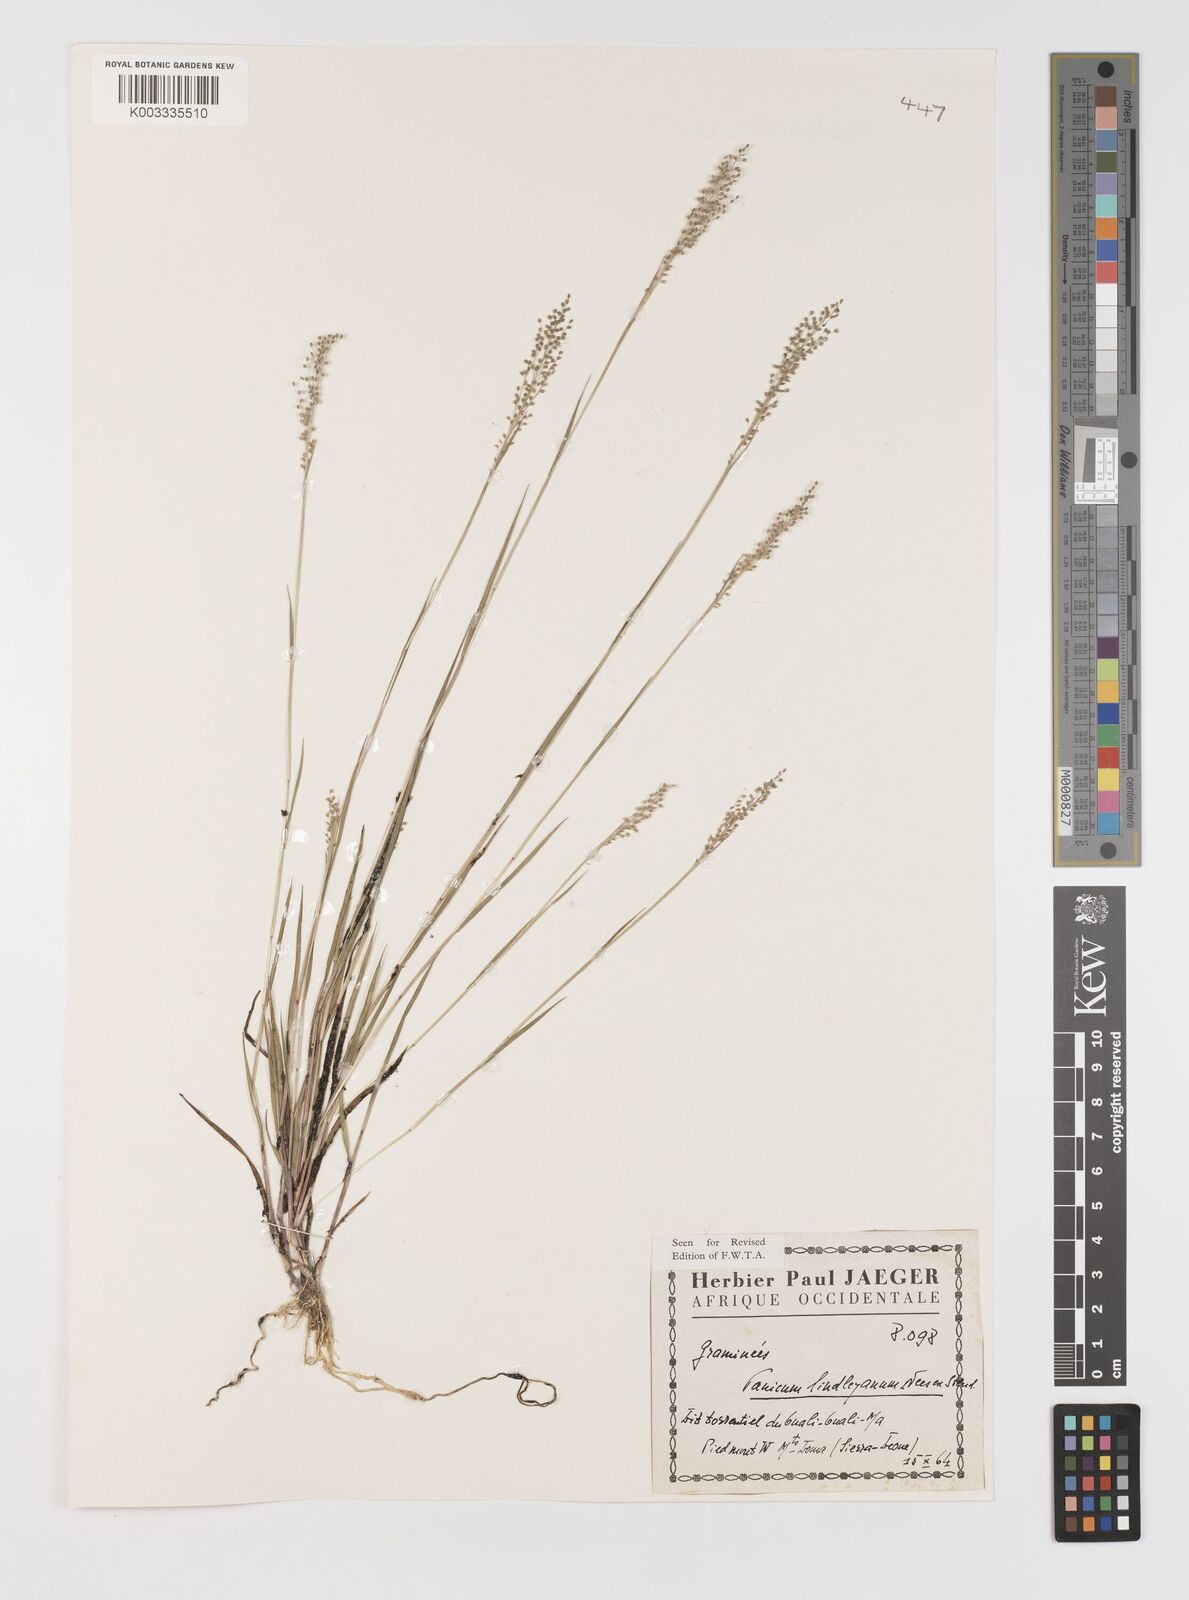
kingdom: Plantae
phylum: Tracheophyta
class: Liliopsida
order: Poales
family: Poaceae
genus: Trichanthecium
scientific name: Trichanthecium tenellum
